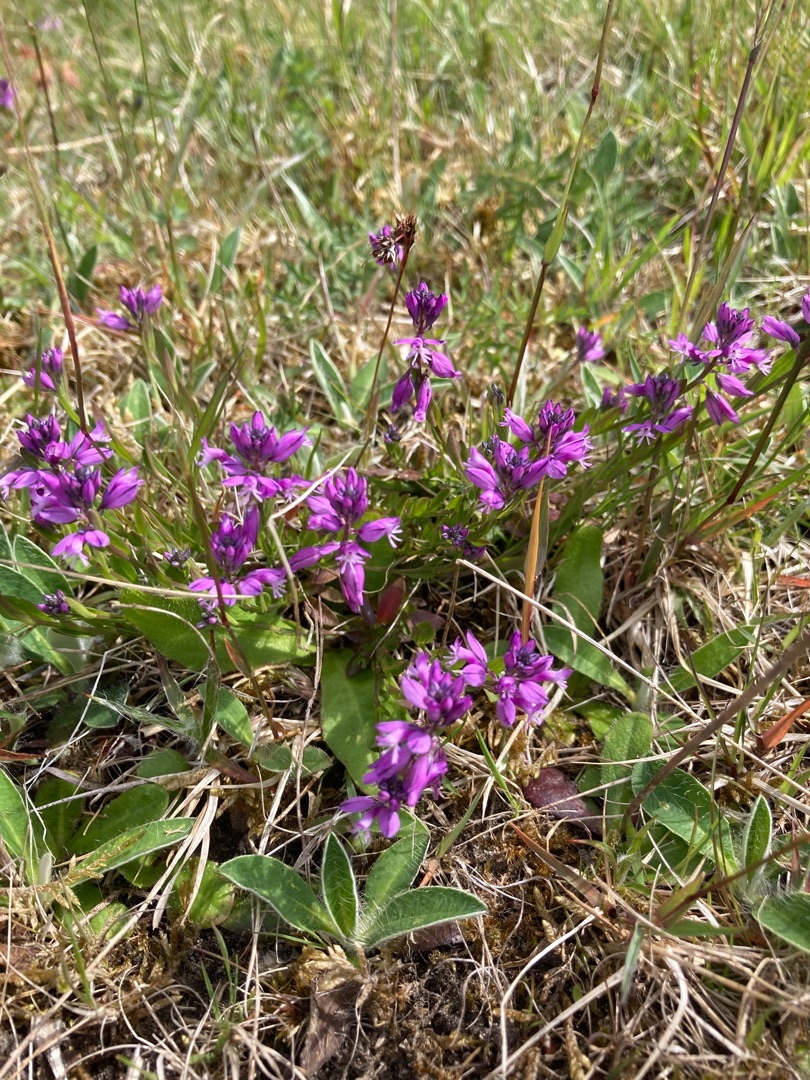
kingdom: Plantae
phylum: Tracheophyta
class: Magnoliopsida
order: Fabales
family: Polygalaceae
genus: Polygala
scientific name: Polygala vulgaris
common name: Almindelig mælkeurt
